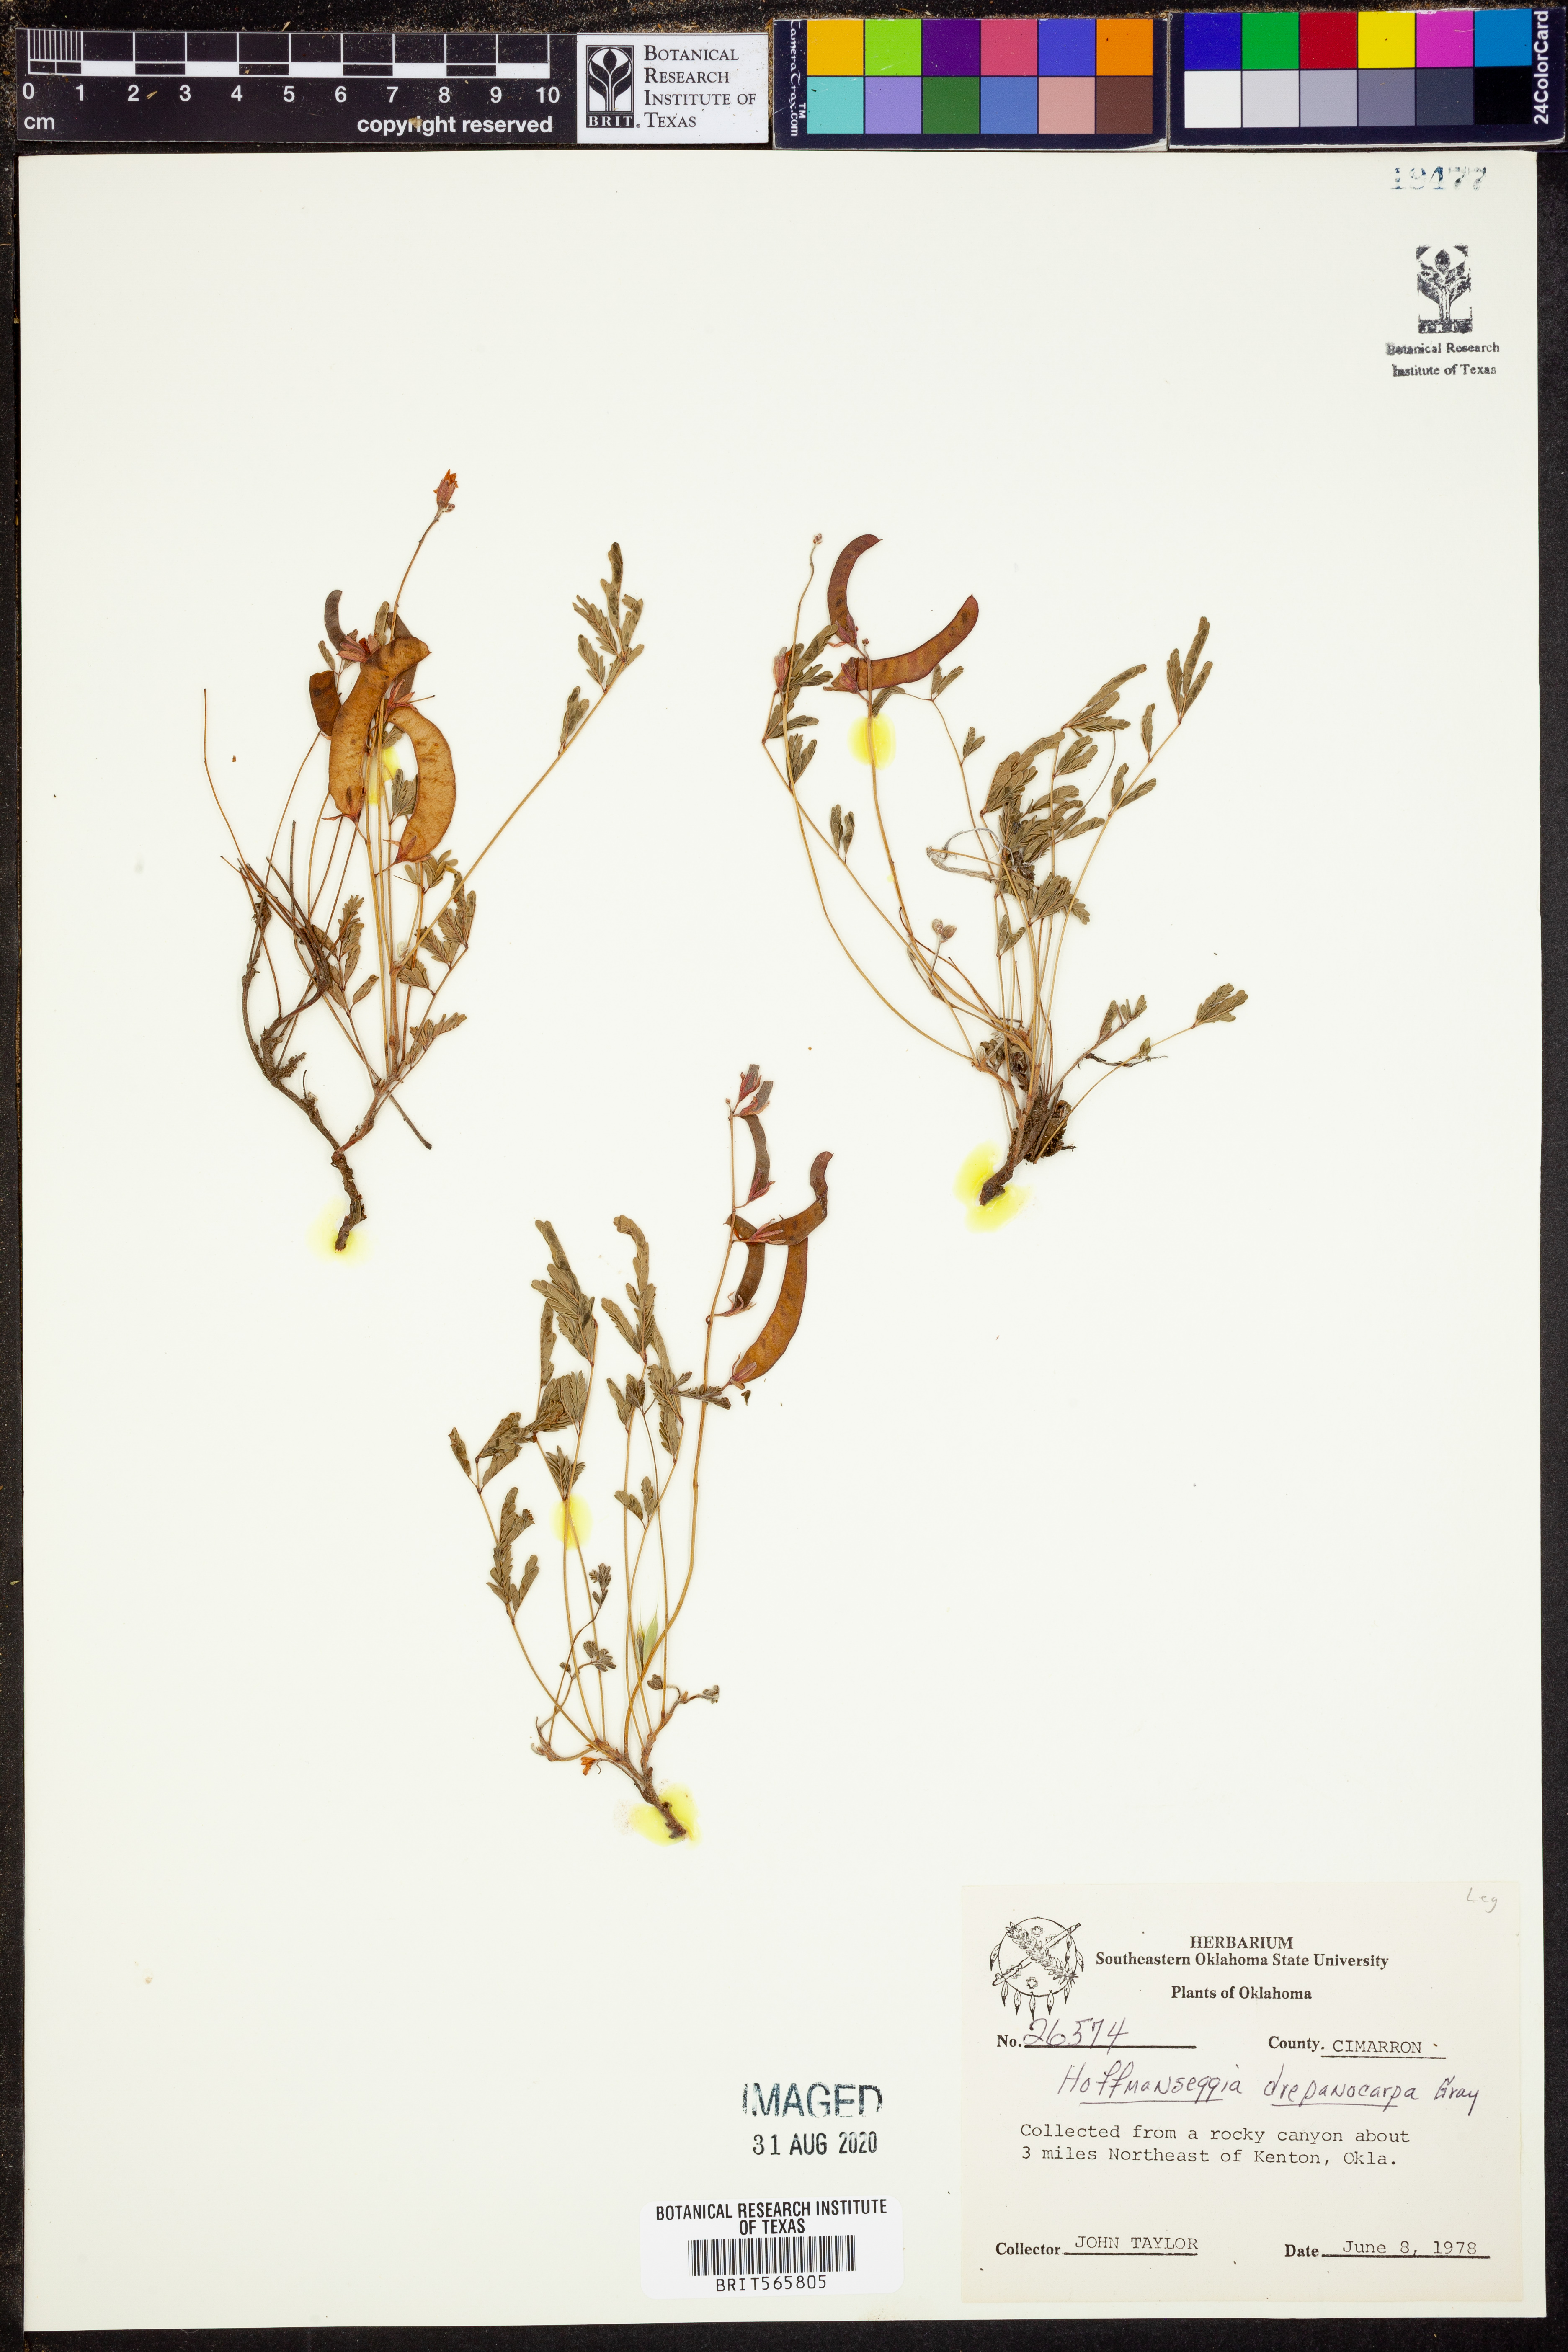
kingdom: Plantae
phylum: Tracheophyta
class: Magnoliopsida
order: Fabales
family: Fabaceae
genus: Hoffmannseggia
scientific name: Hoffmannseggia drepanocarpa
